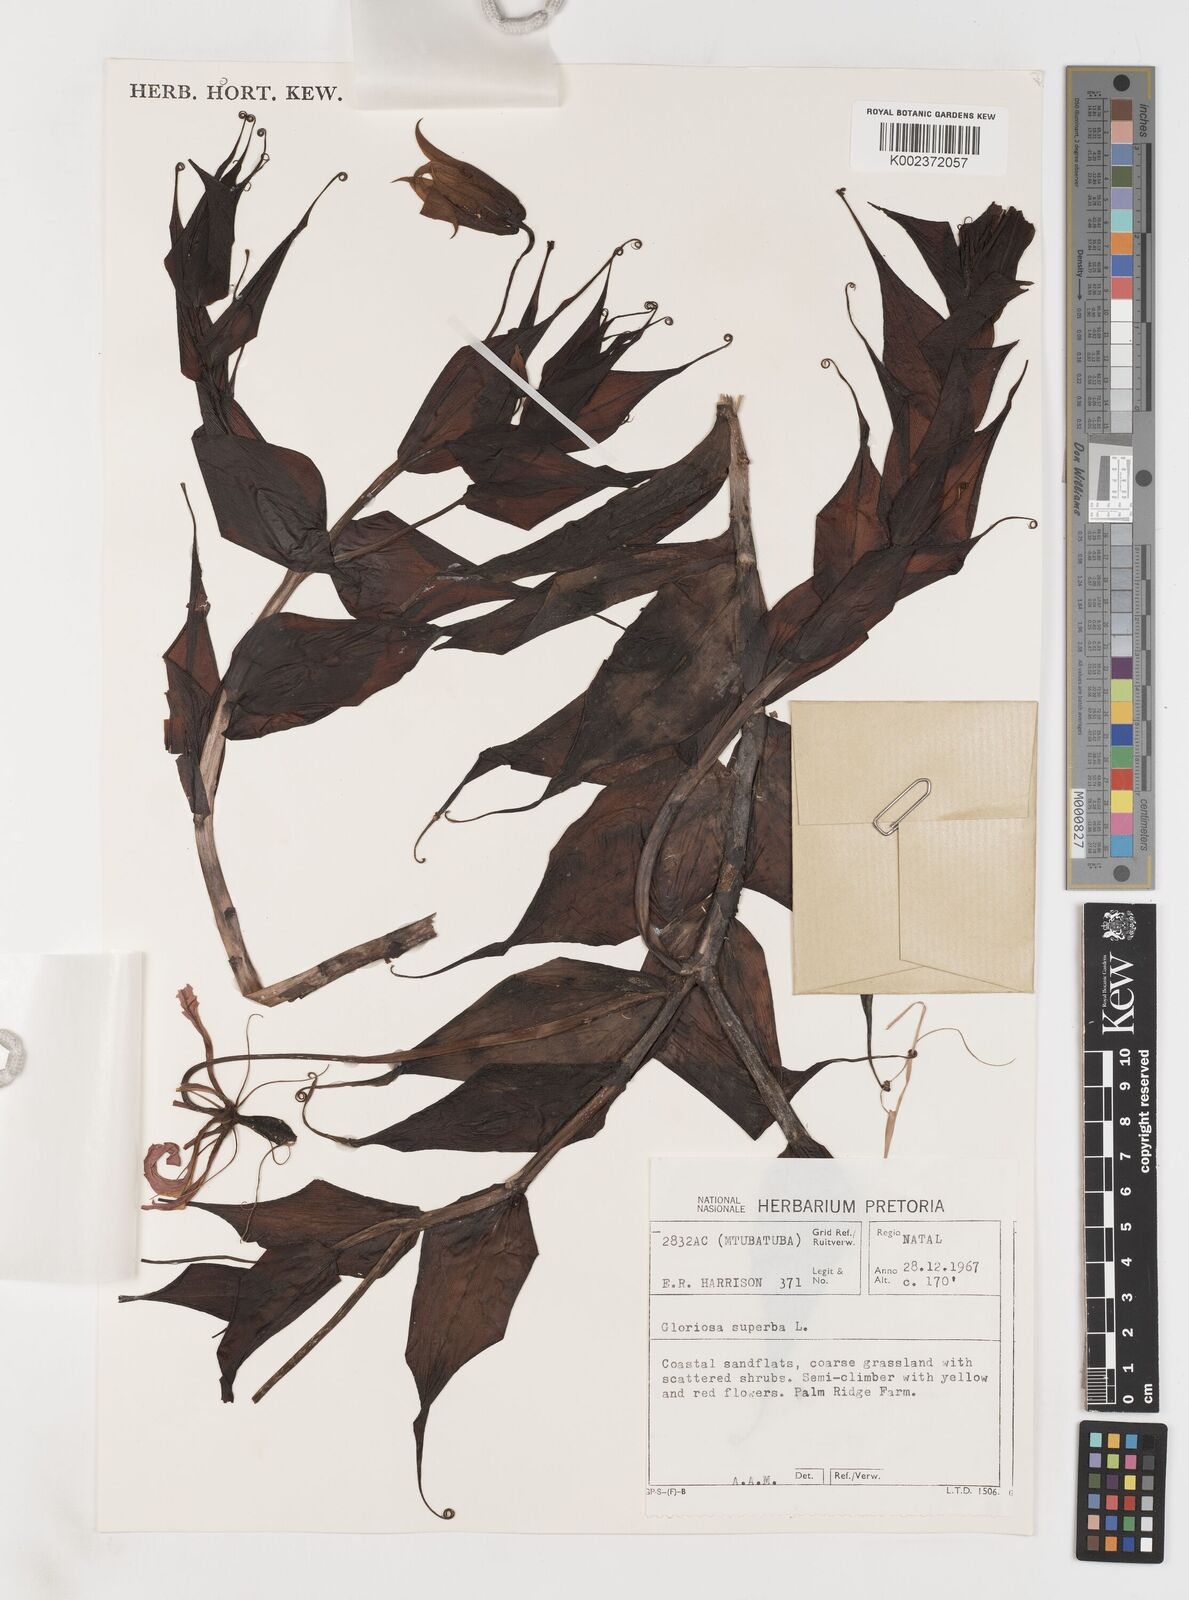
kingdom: Plantae
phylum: Tracheophyta
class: Liliopsida
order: Liliales
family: Colchicaceae
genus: Gloriosa
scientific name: Gloriosa simplex
